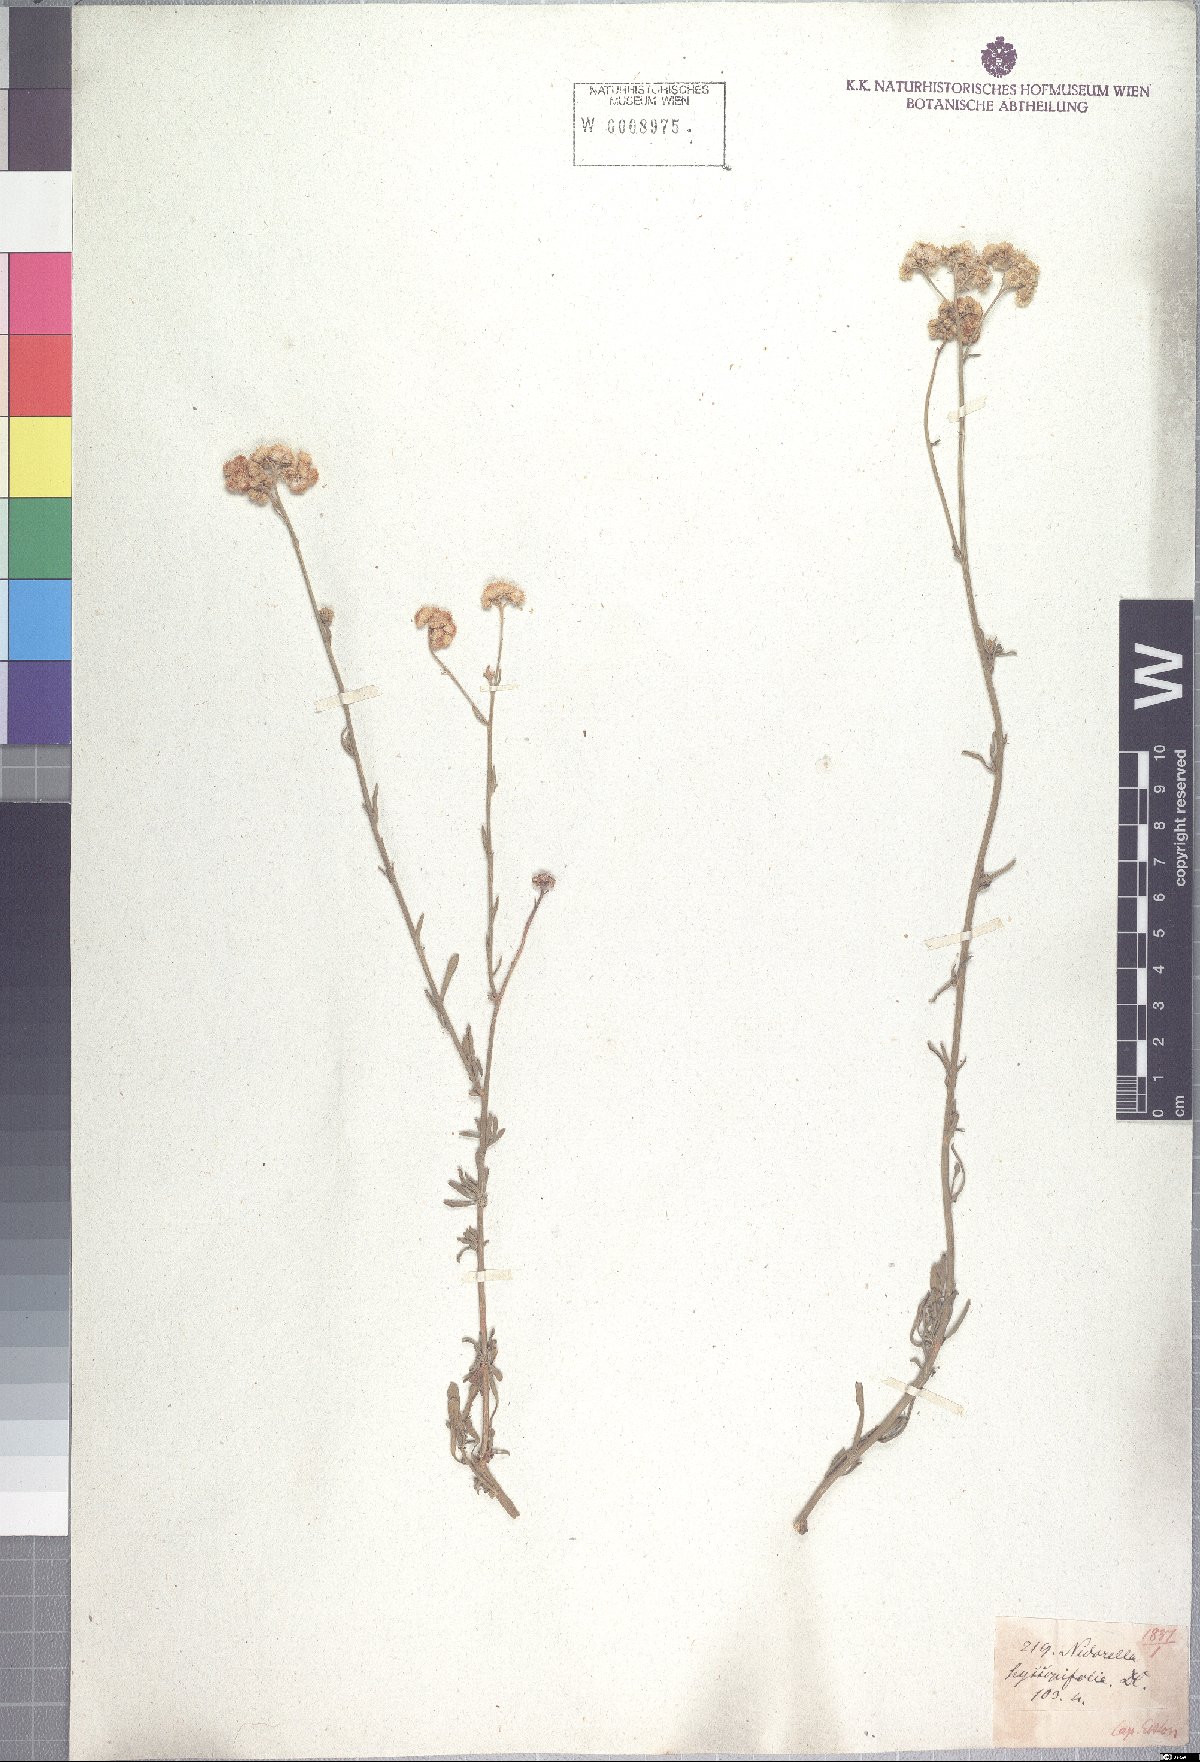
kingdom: Plantae
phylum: Tracheophyta
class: Magnoliopsida
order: Asterales
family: Asteraceae
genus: Nidorella
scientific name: Nidorella foetida
